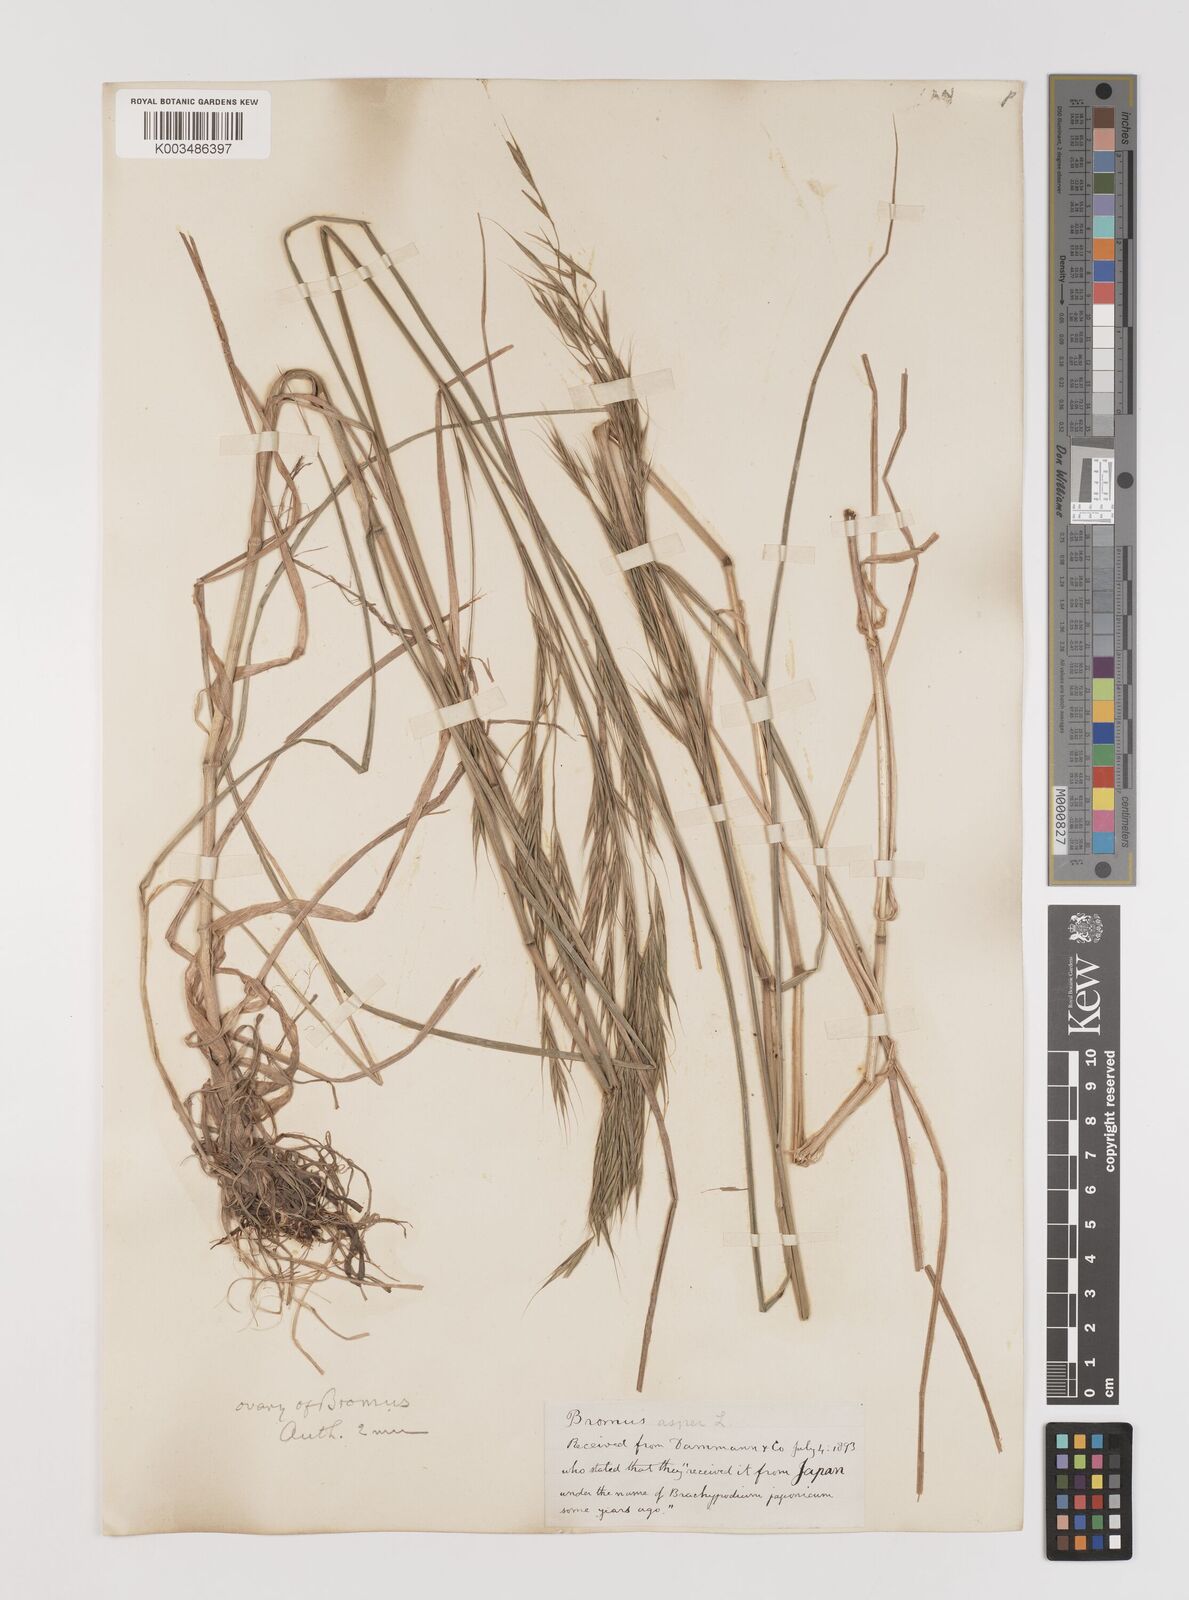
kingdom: Plantae
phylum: Tracheophyta
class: Liliopsida
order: Poales
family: Poaceae
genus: Bromus
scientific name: Bromus
